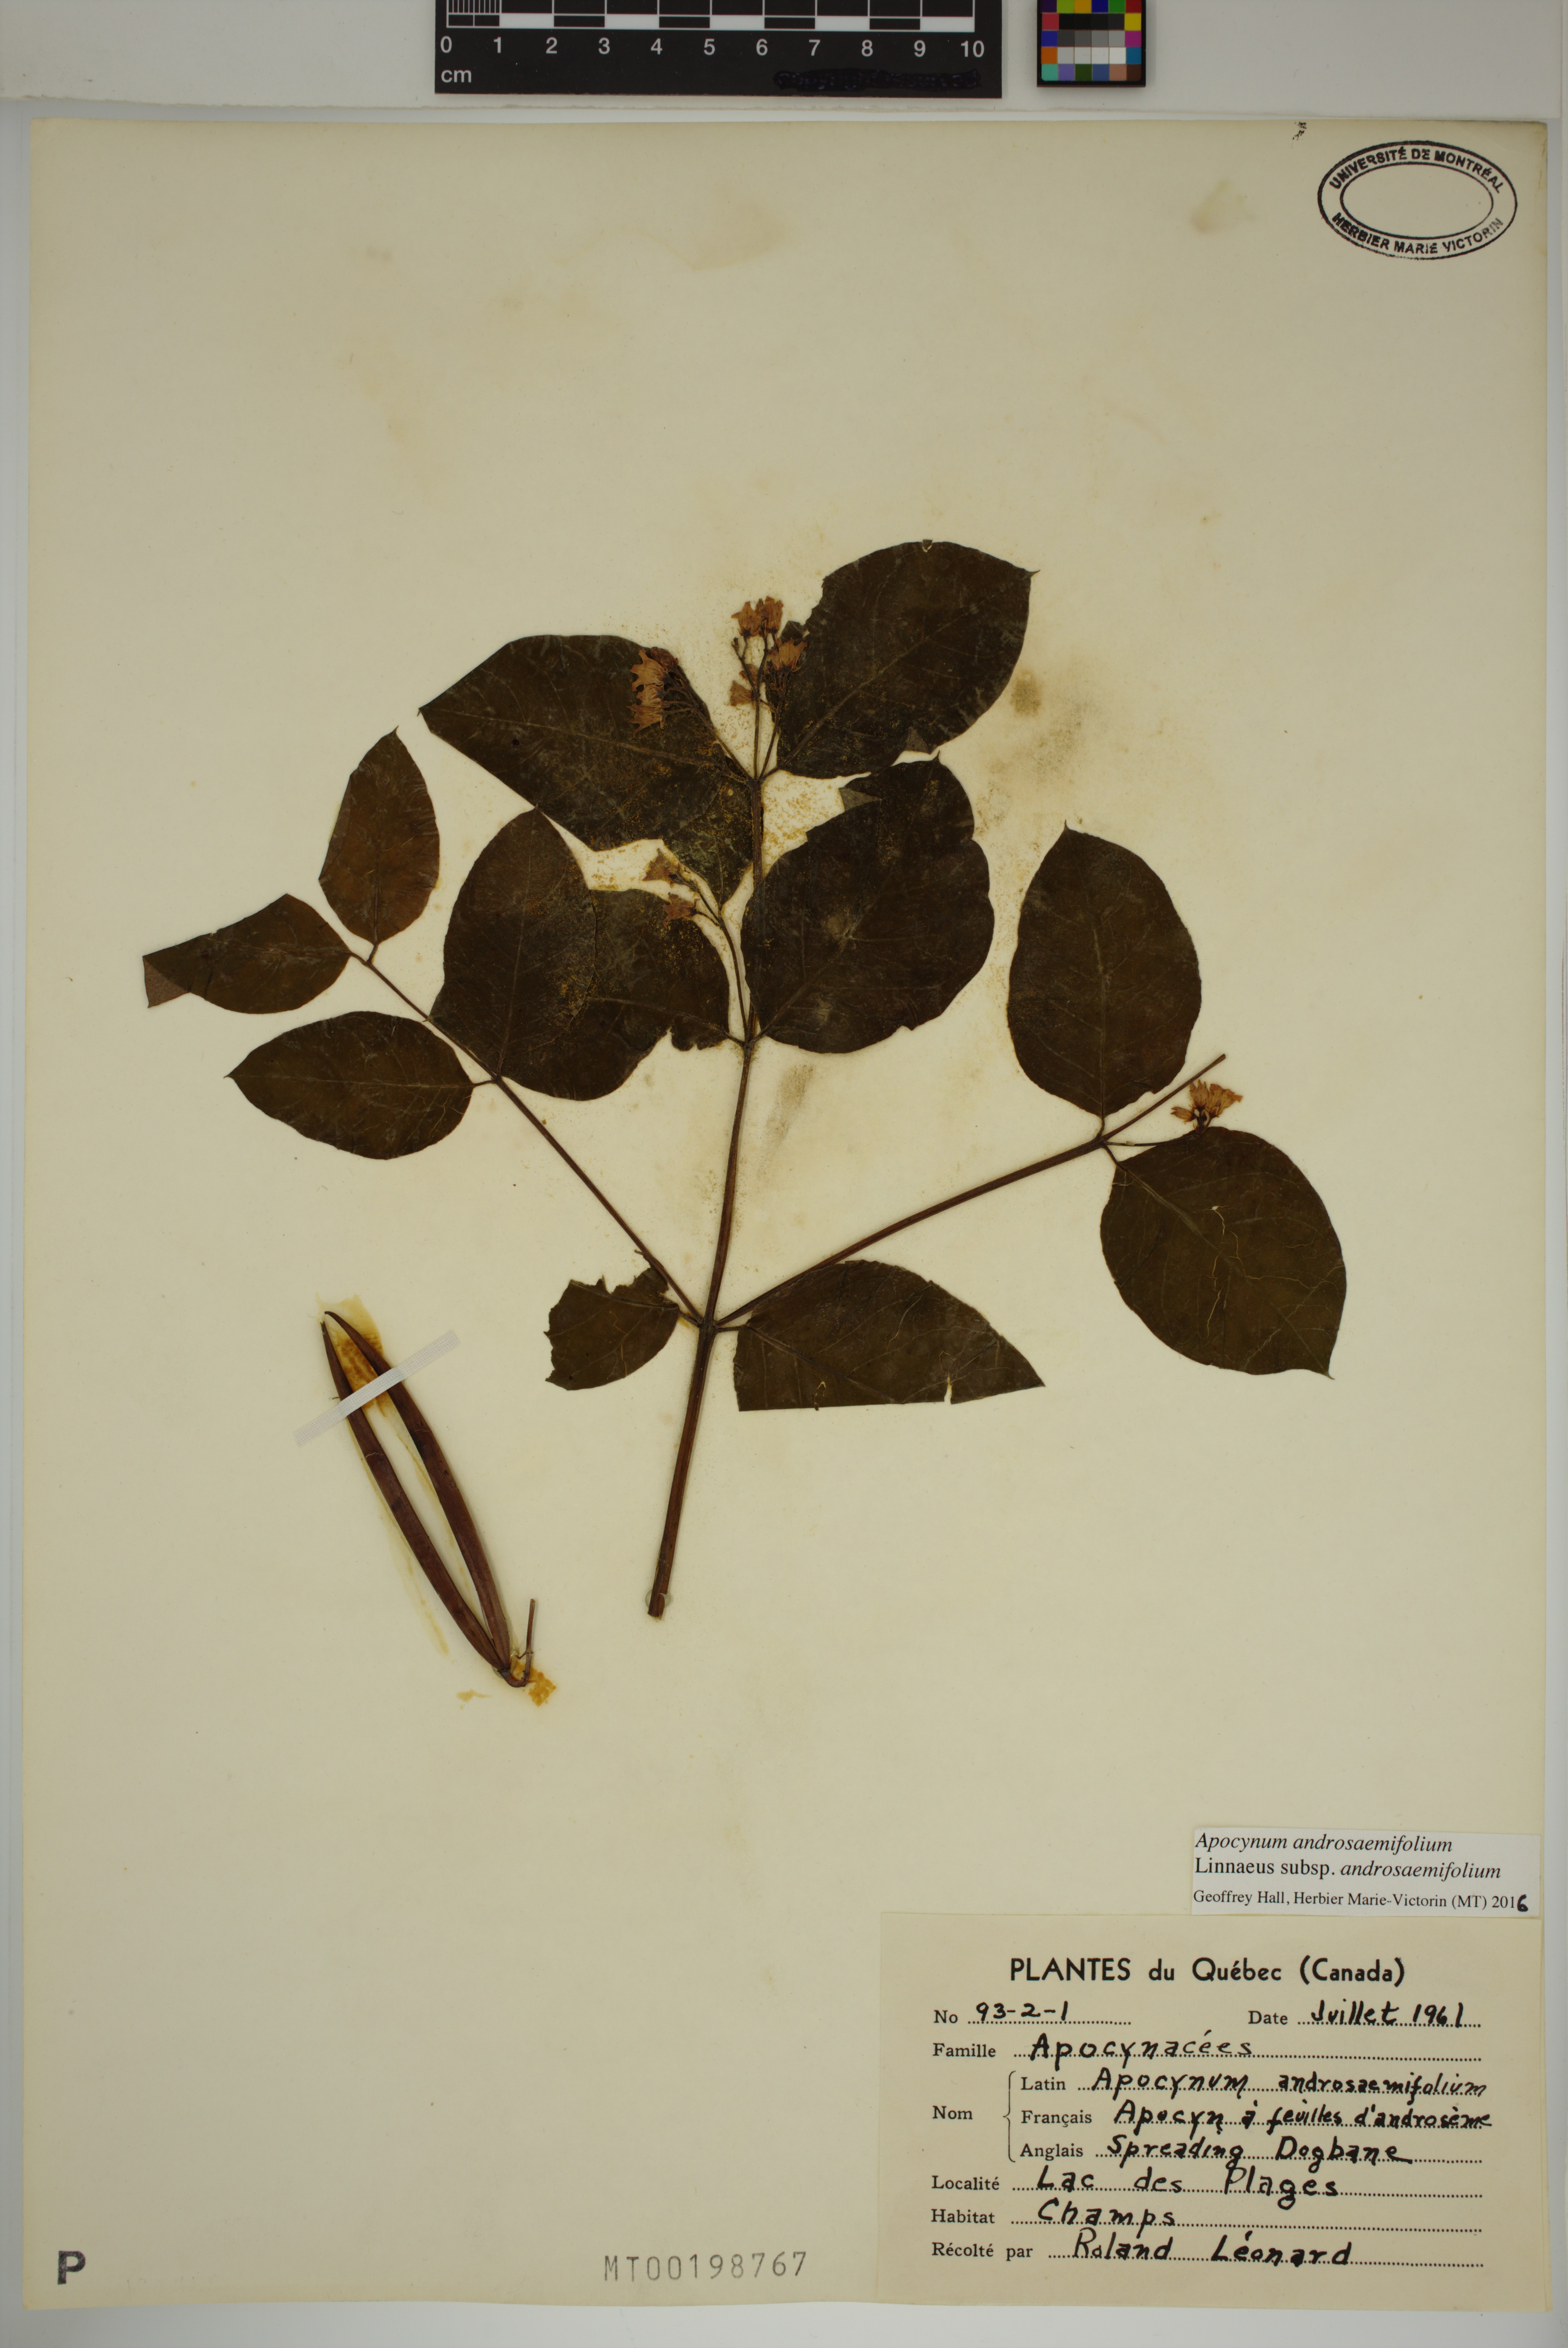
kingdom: Plantae
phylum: Tracheophyta
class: Magnoliopsida
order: Gentianales
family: Apocynaceae
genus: Apocynum
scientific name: Apocynum androsaemifolium
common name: Spreading dogbane
